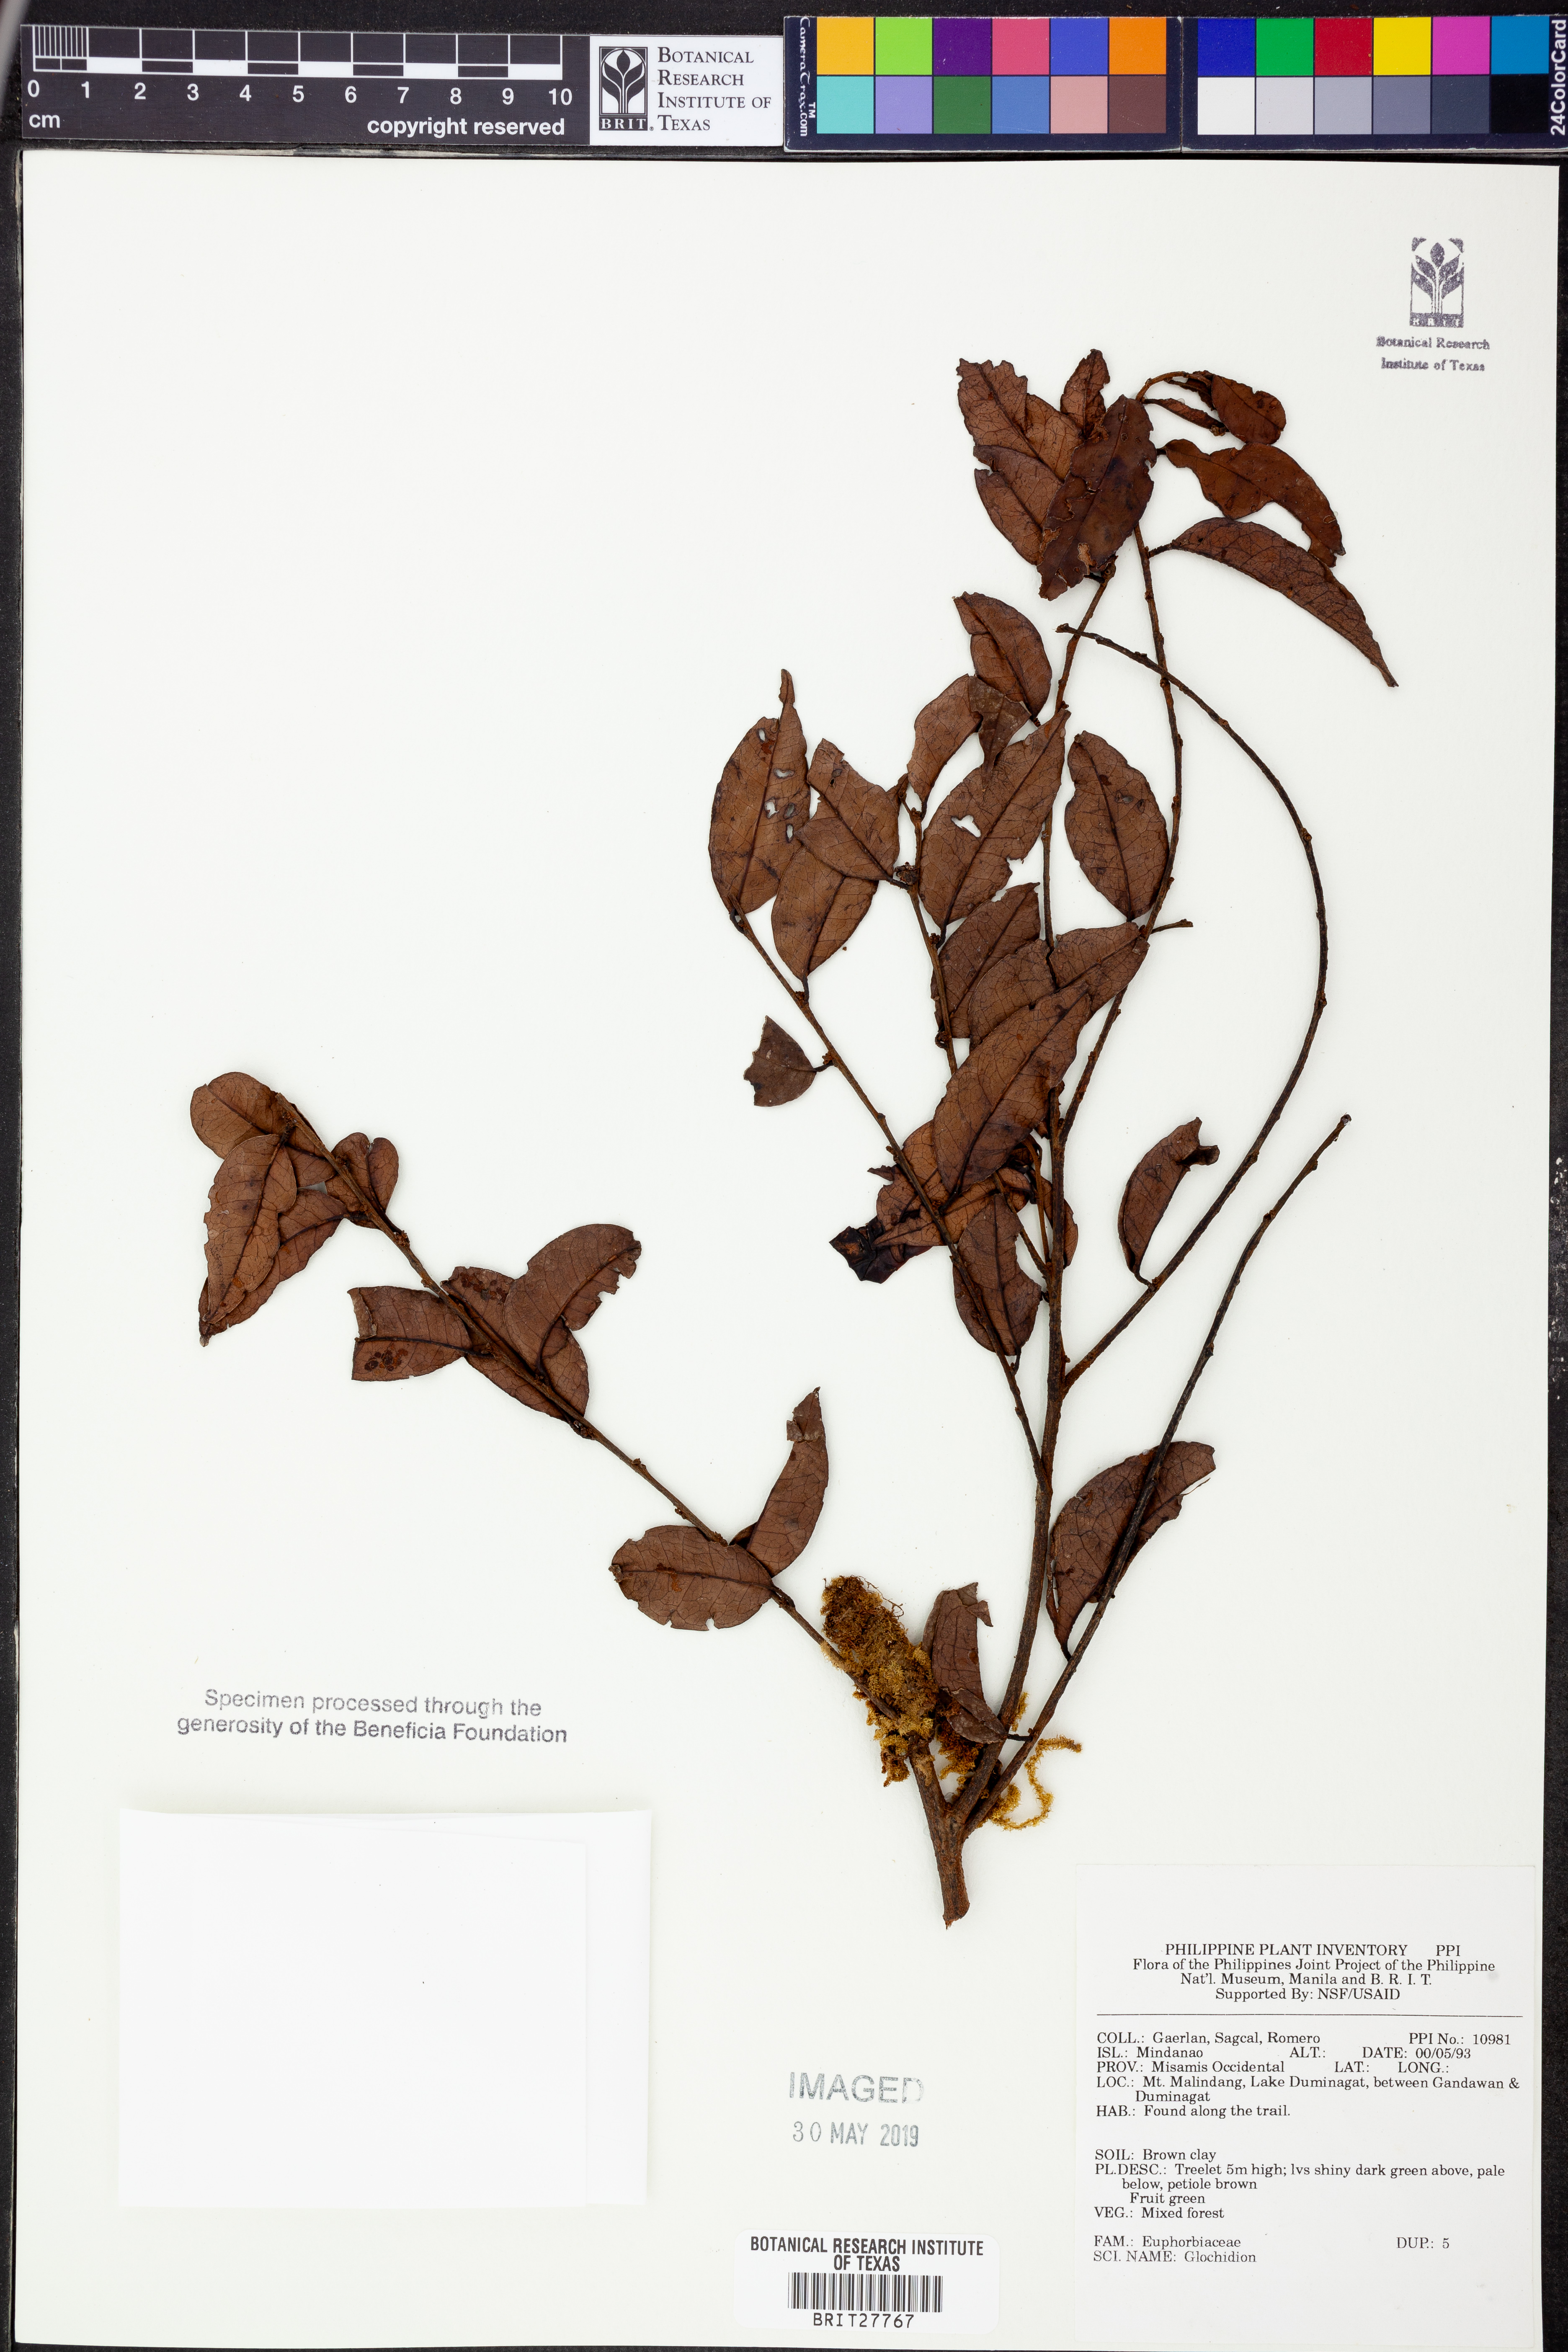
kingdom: Plantae
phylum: Tracheophyta
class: Magnoliopsida
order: Malpighiales
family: Phyllanthaceae
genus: Glochidion
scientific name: Glochidion
